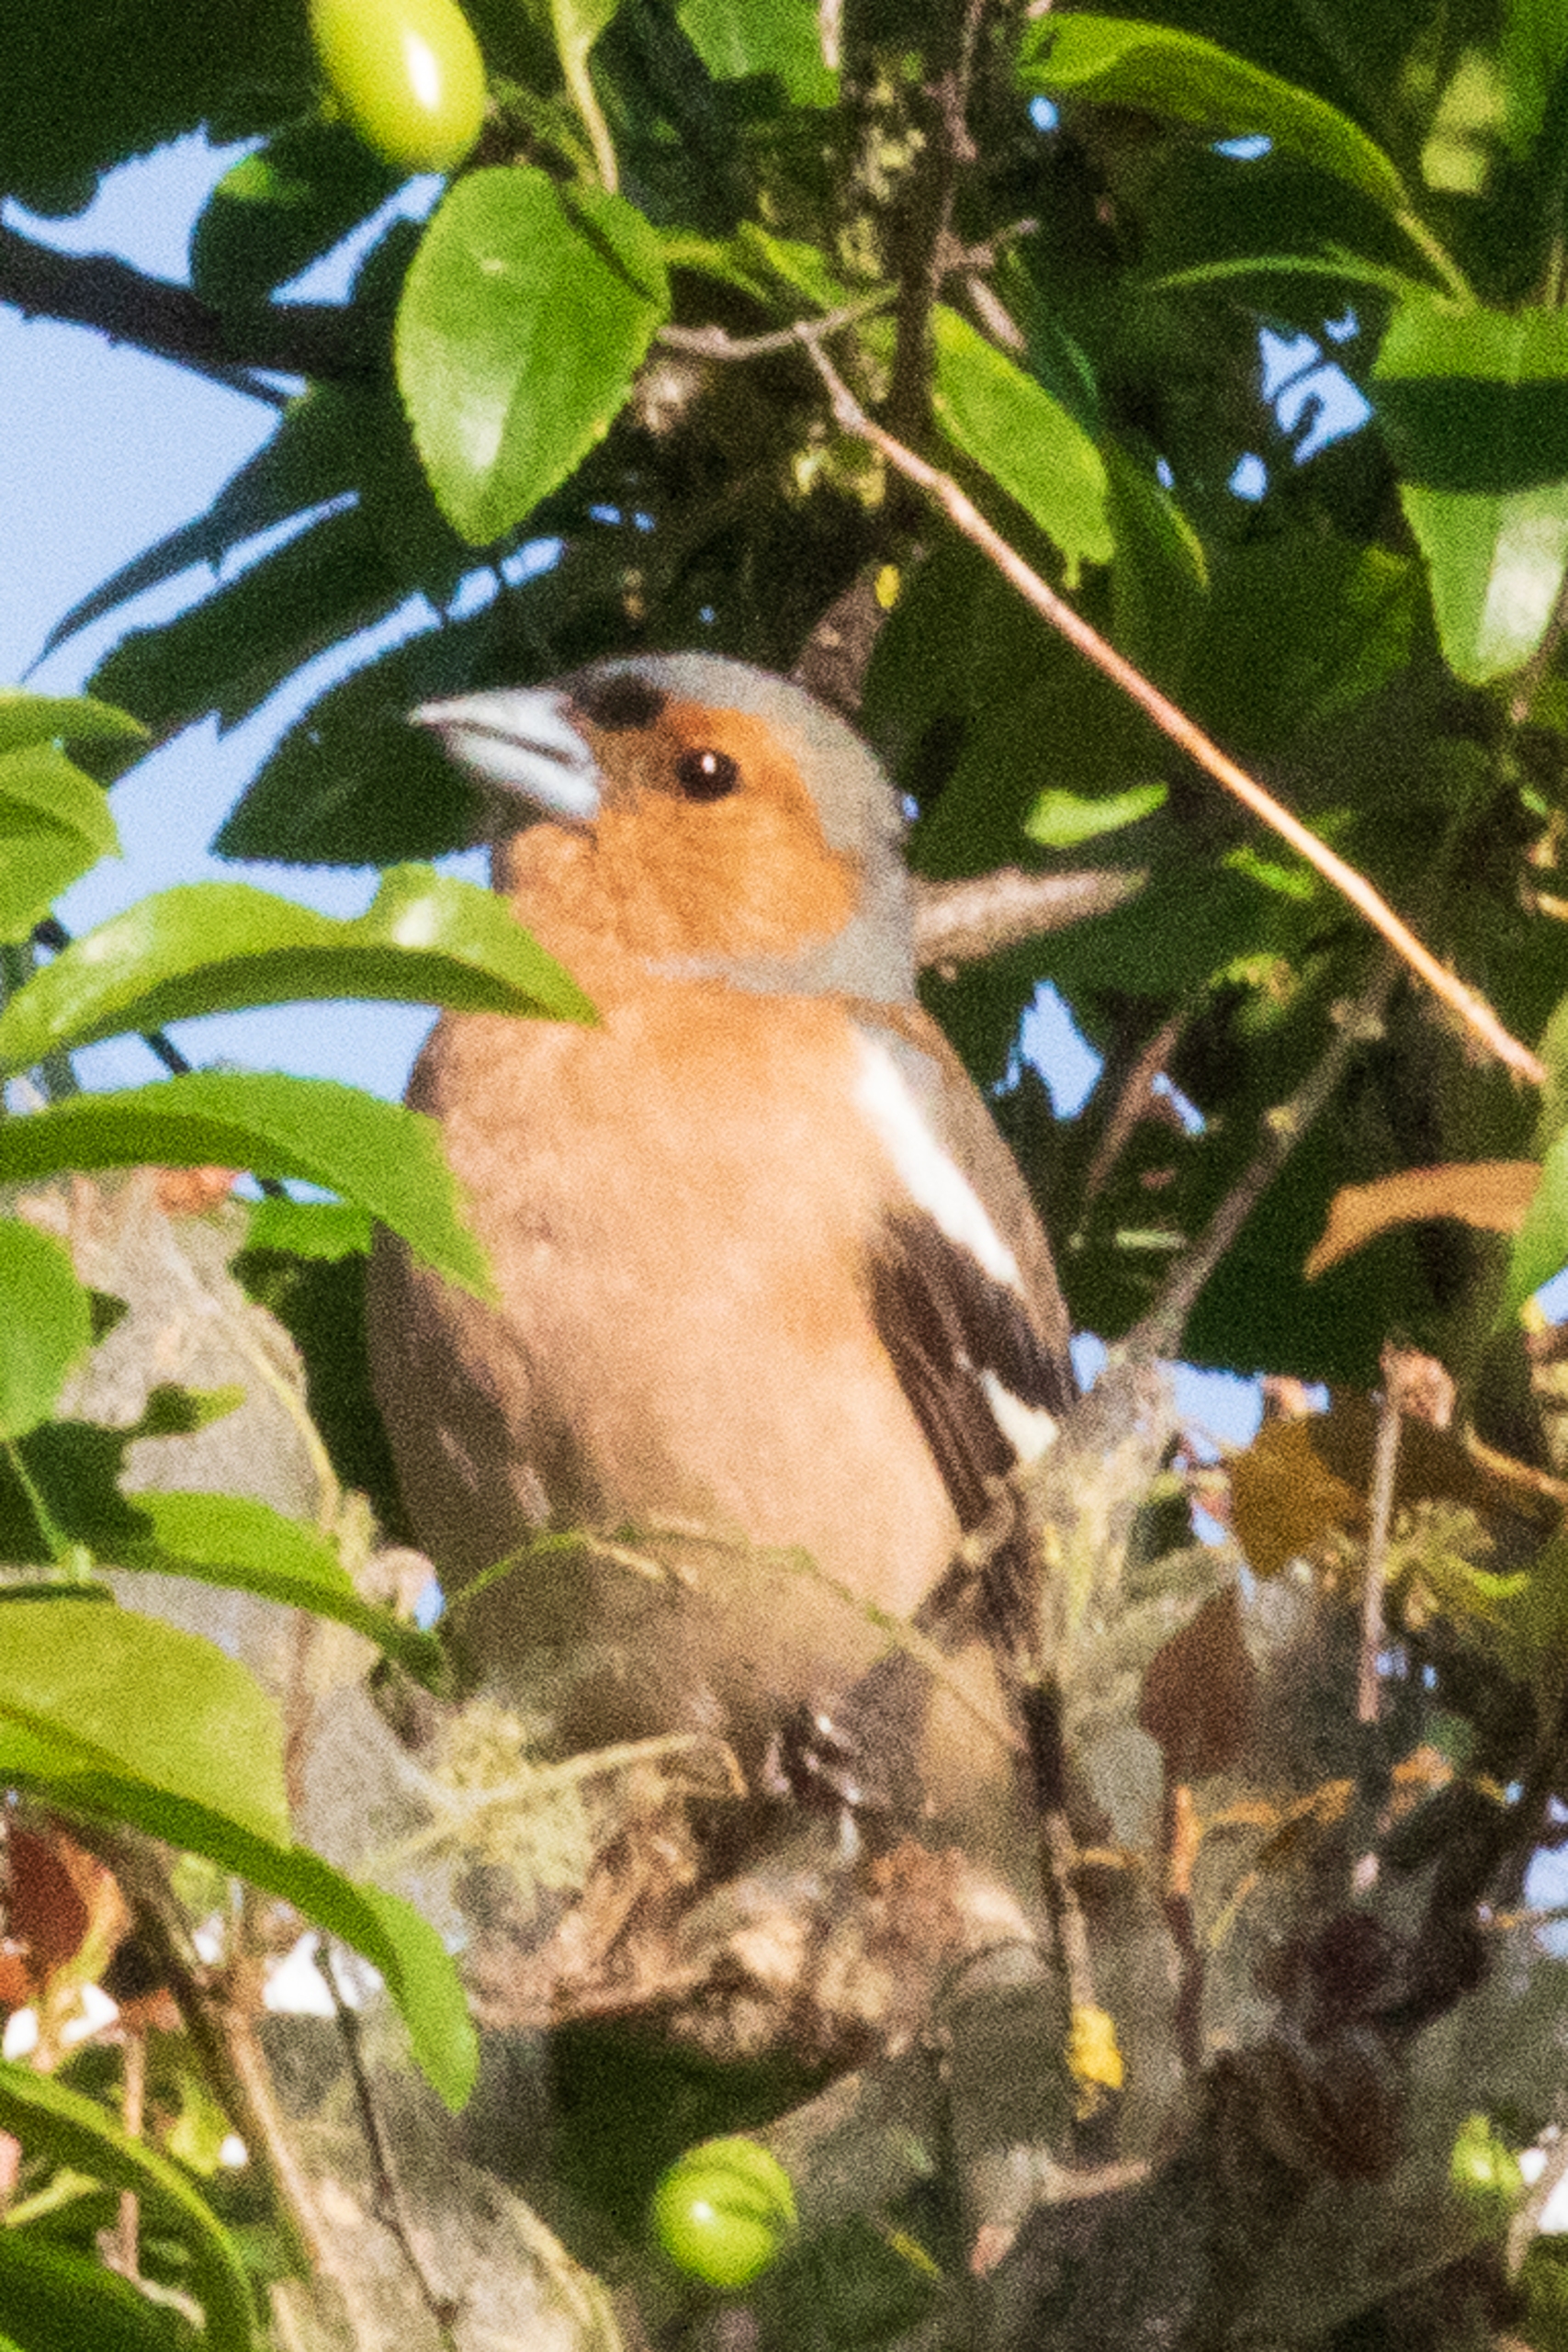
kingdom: Animalia
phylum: Chordata
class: Aves
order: Passeriformes
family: Fringillidae
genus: Fringilla
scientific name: Fringilla coelebs
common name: Bogfinke
